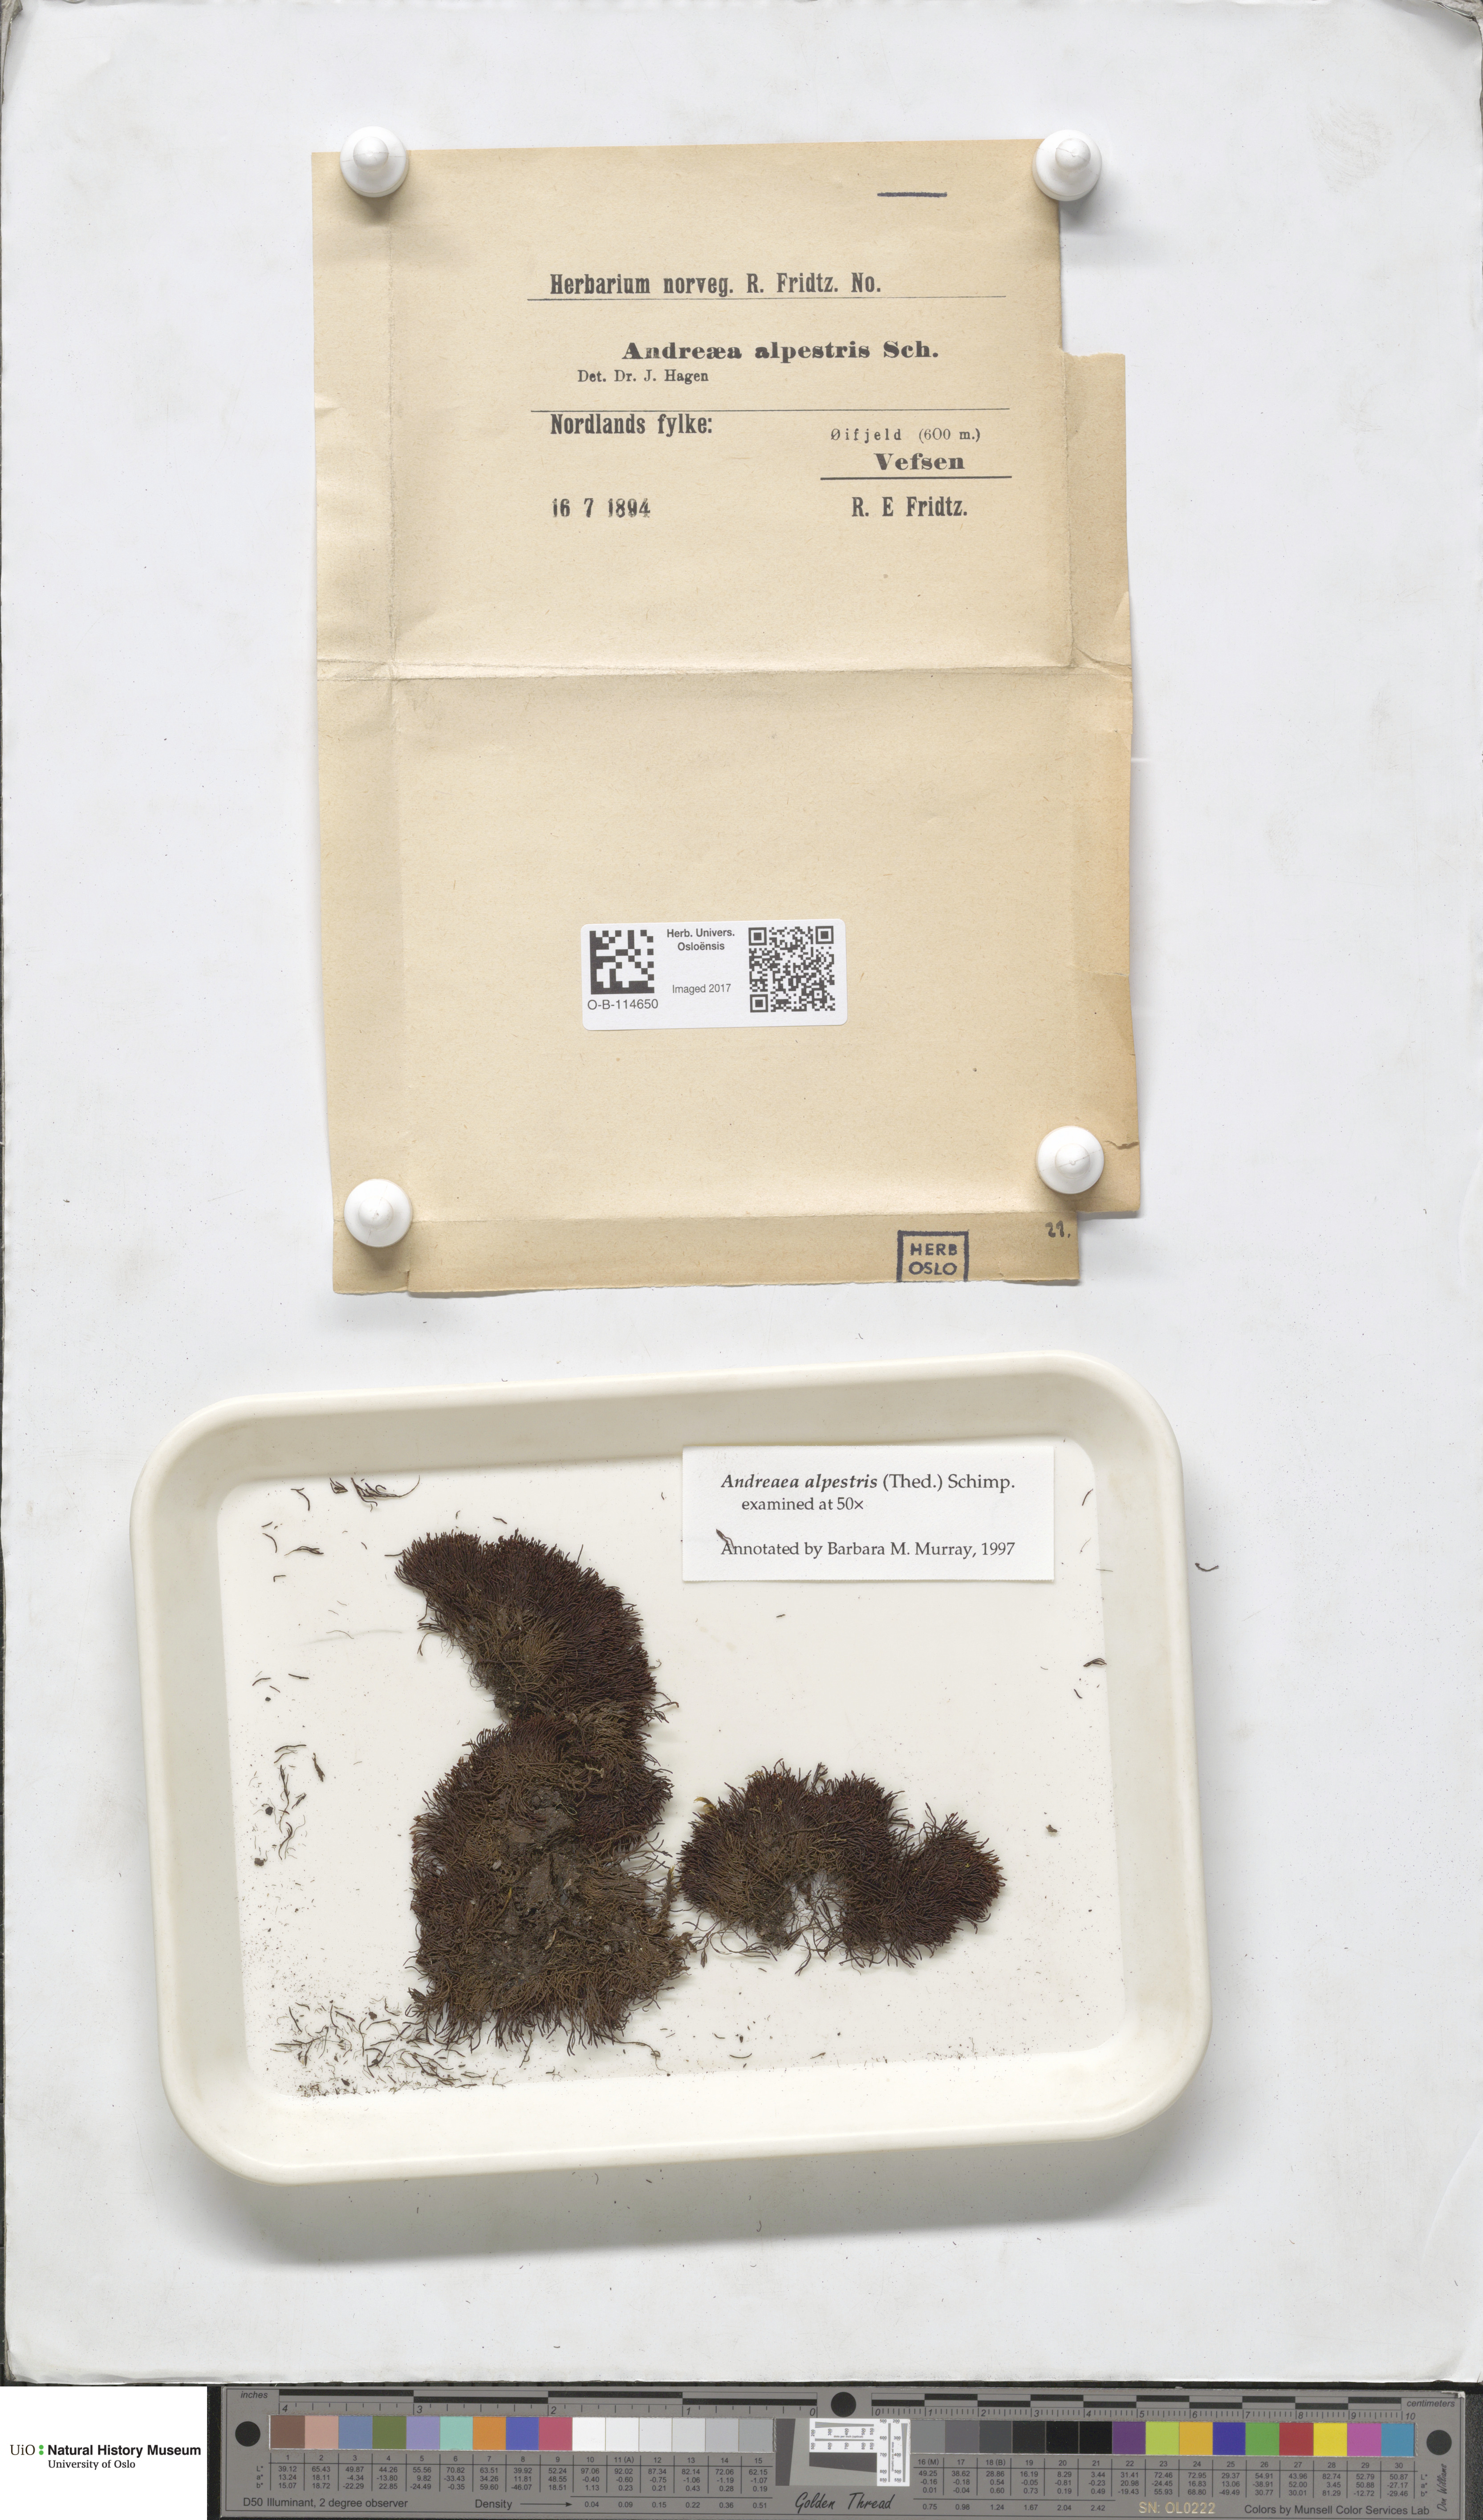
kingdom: Plantae
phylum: Bryophyta
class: Andreaeopsida
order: Andreaeales
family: Andreaeaceae
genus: Andreaea
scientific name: Andreaea alpestris
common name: Slender rock-moss
